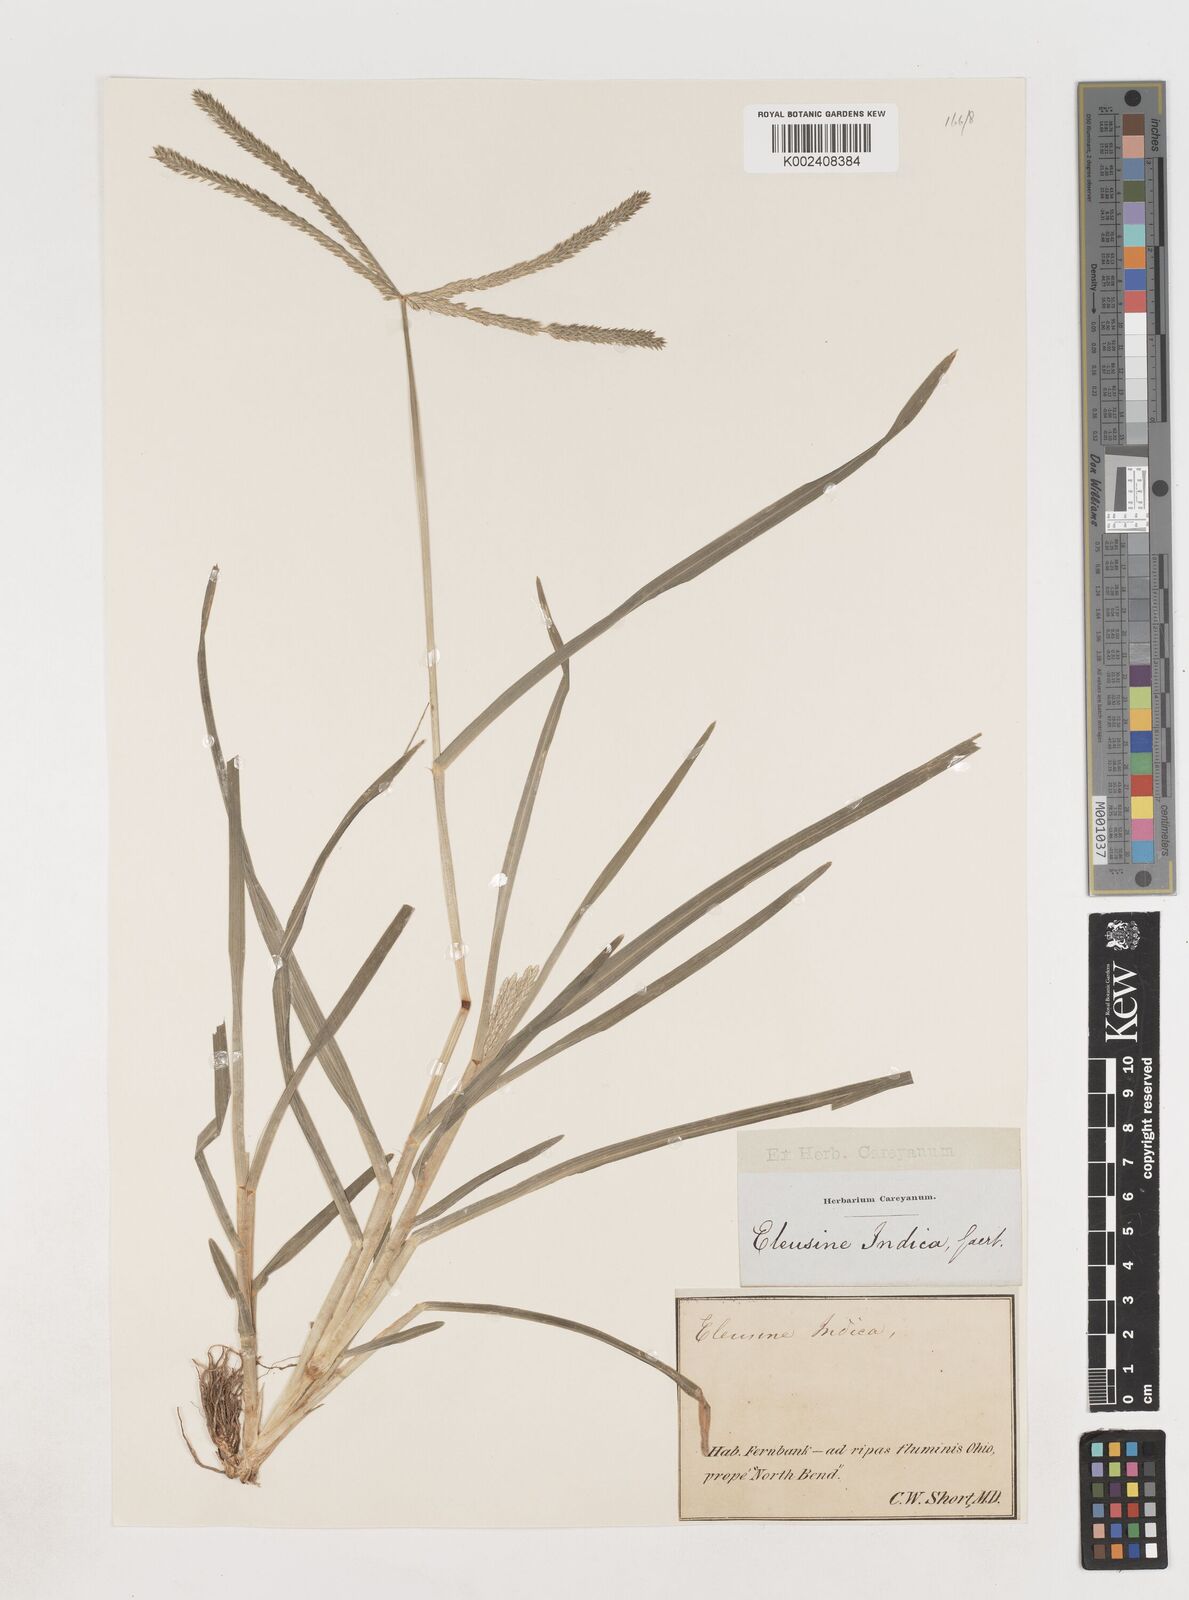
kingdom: Plantae
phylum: Tracheophyta
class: Liliopsida
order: Poales
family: Poaceae
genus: Eleusine
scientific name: Eleusine indica
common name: Yard-grass
